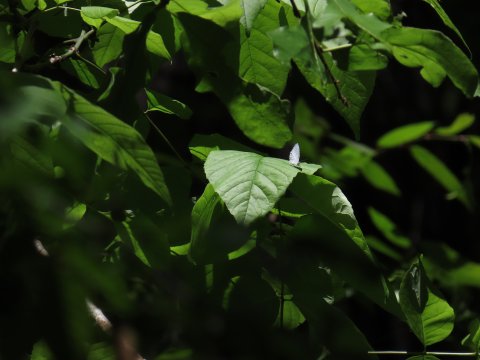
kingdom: Animalia
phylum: Arthropoda
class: Insecta
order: Lepidoptera
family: Lycaenidae
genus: Celastrina
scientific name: Celastrina
